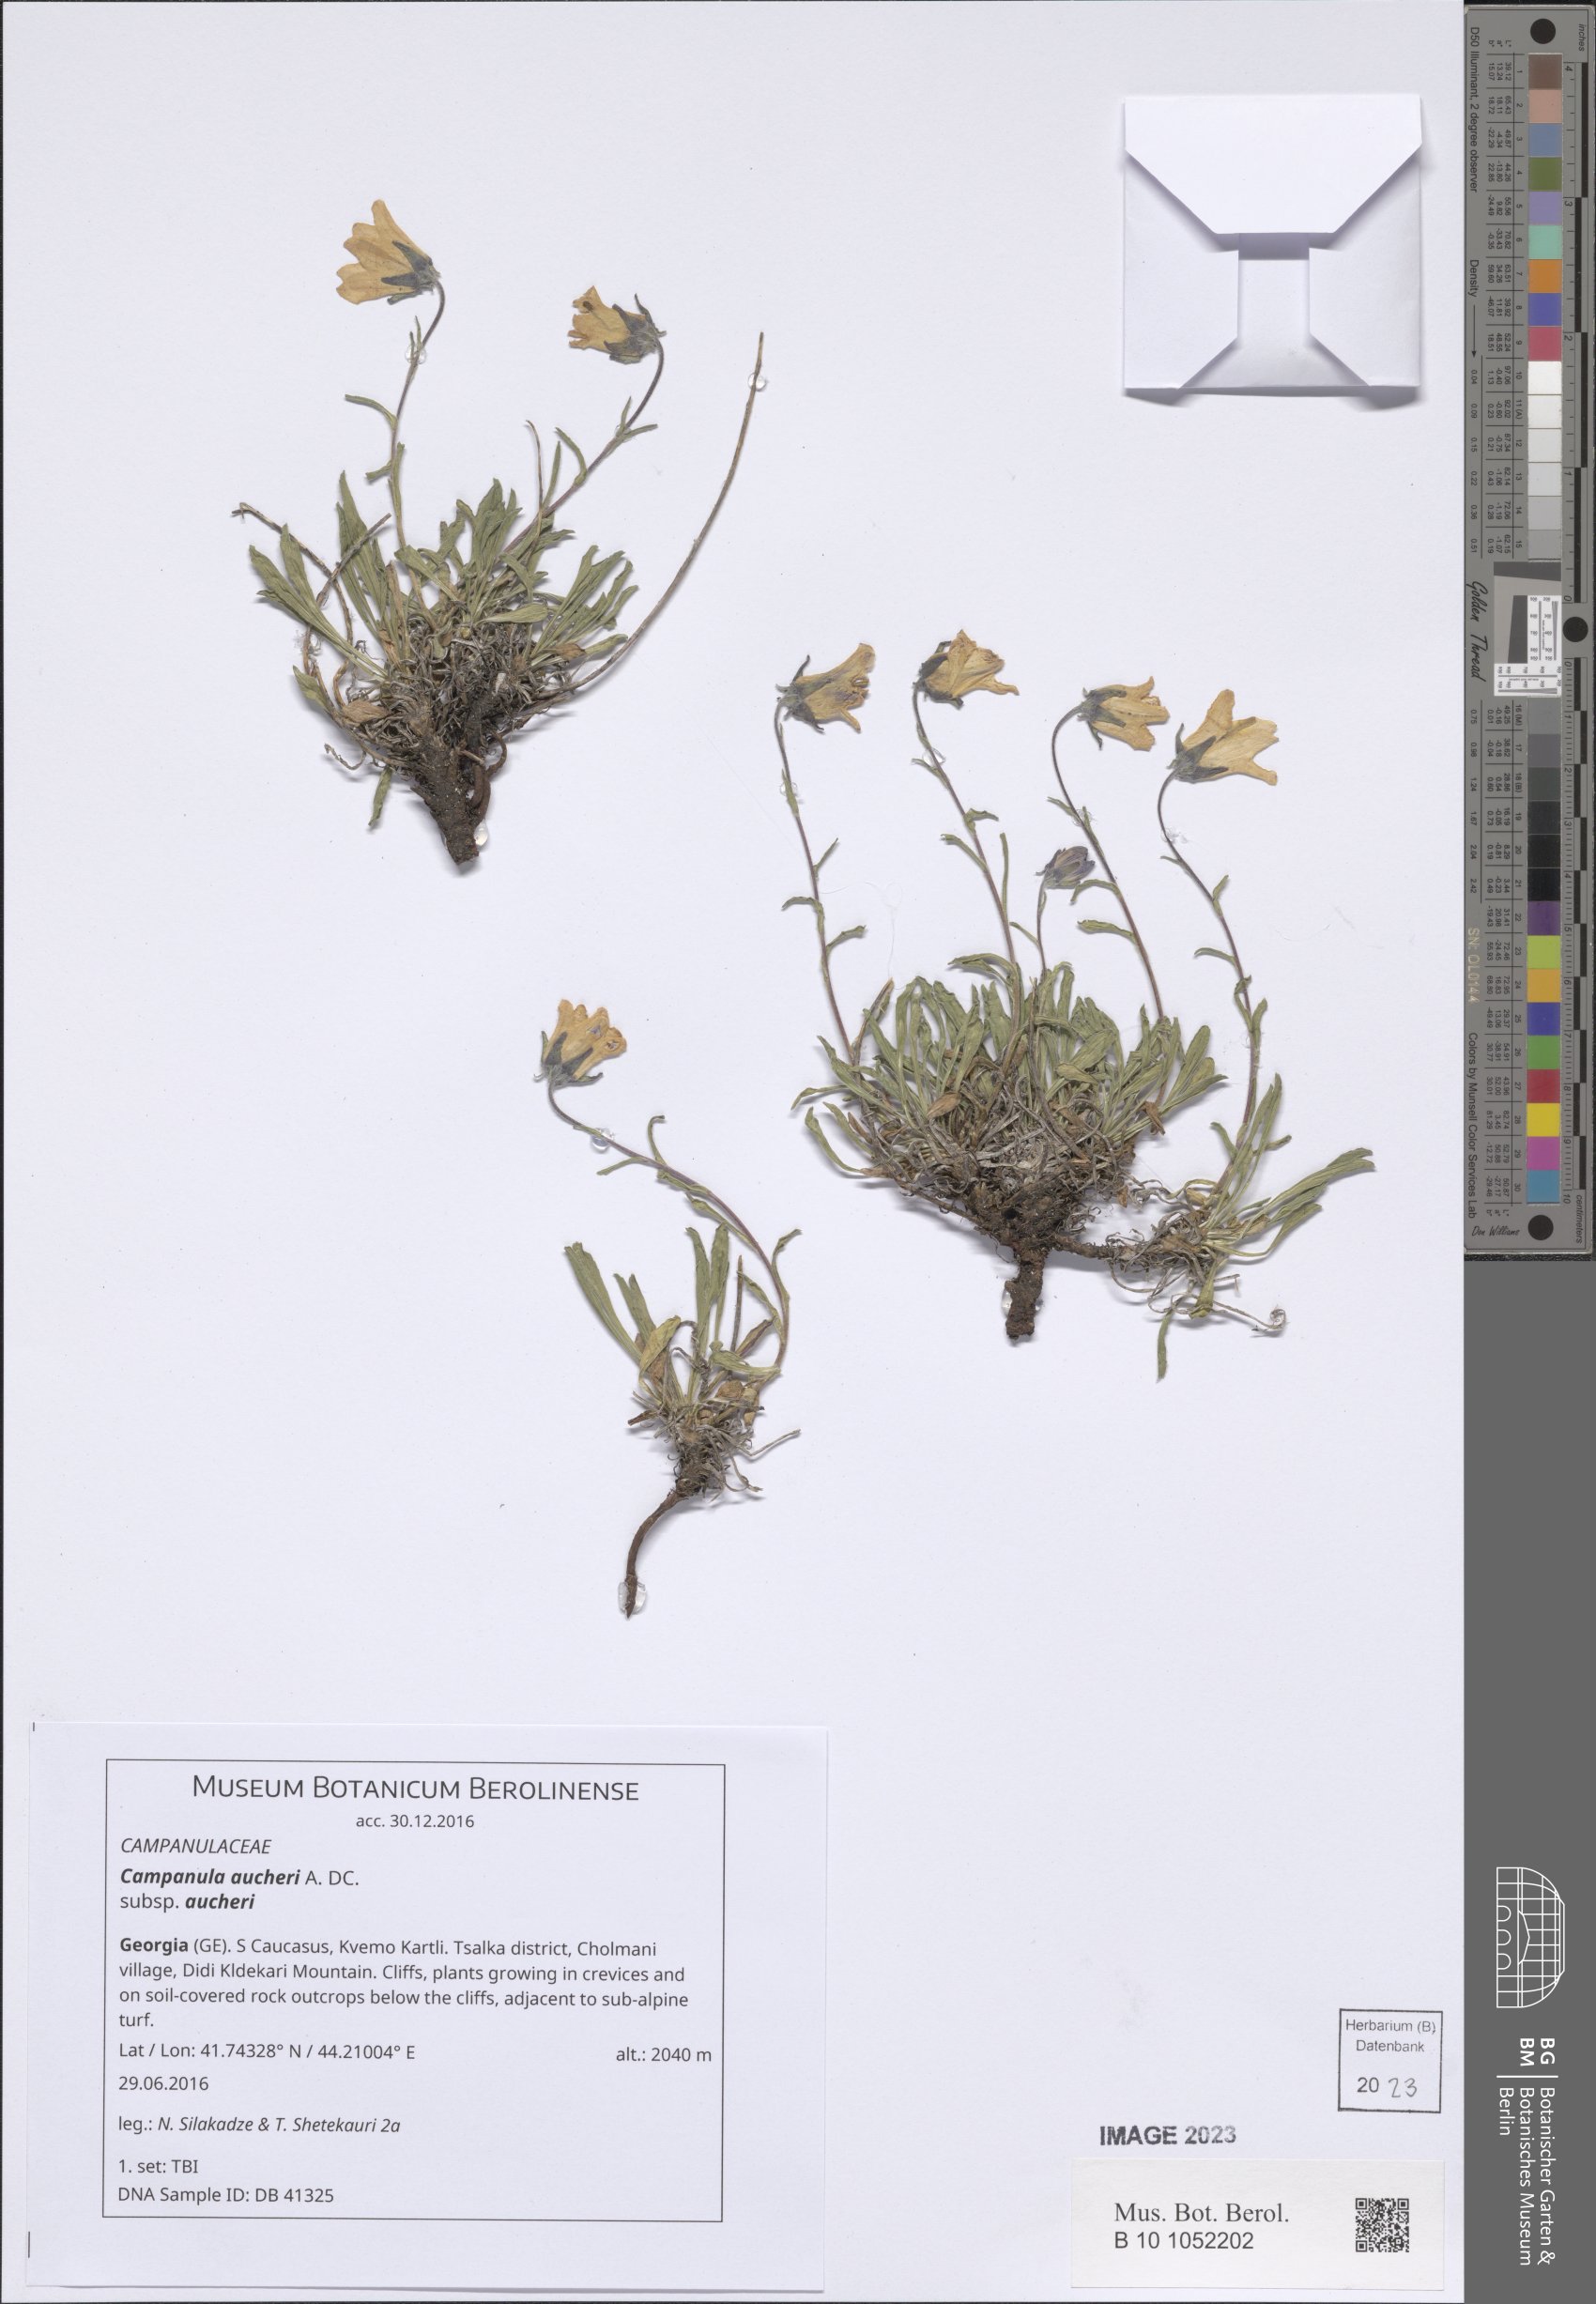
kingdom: Plantae
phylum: Tracheophyta
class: Magnoliopsida
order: Asterales
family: Campanulaceae
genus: Campanula
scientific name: Campanula saxifraga
